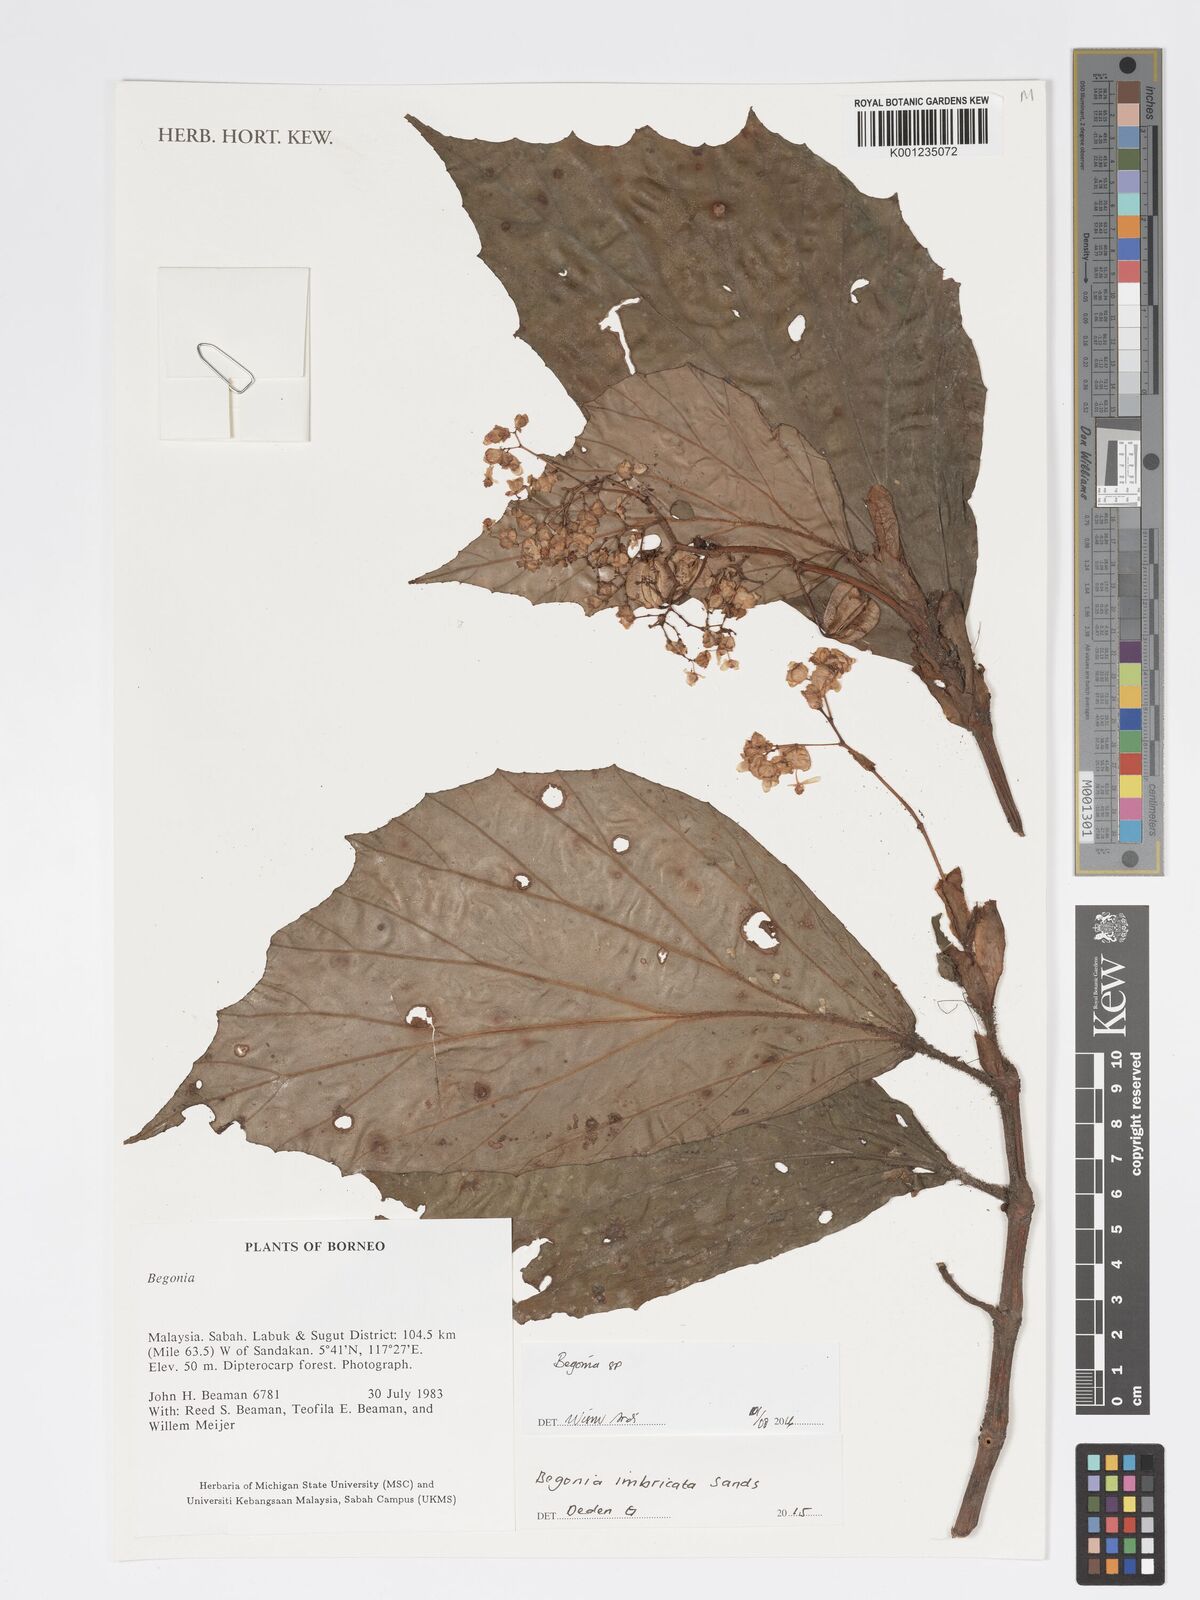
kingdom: Plantae
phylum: Tracheophyta
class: Magnoliopsida
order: Cucurbitales
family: Begoniaceae
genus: Begonia
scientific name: Begonia
